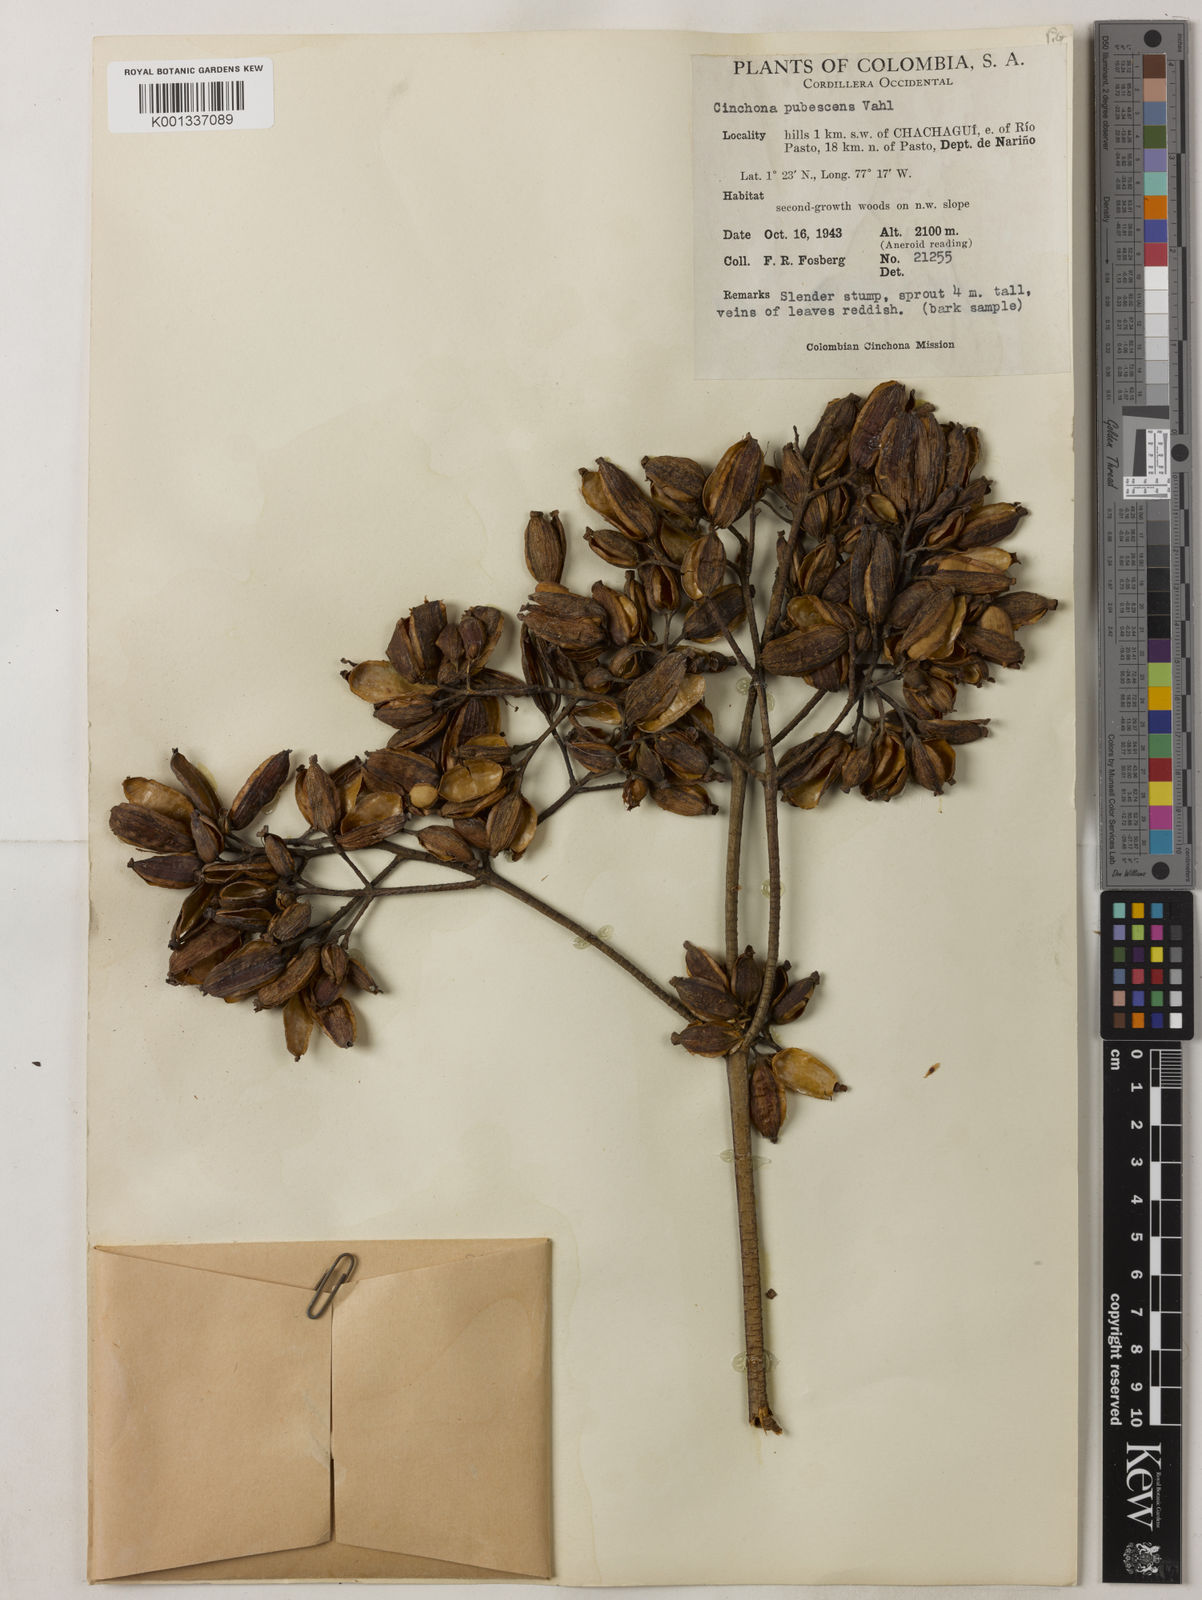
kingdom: Plantae
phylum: Tracheophyta
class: Magnoliopsida
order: Gentianales
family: Rubiaceae
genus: Cinchona
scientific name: Cinchona pubescens
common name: Quinine
